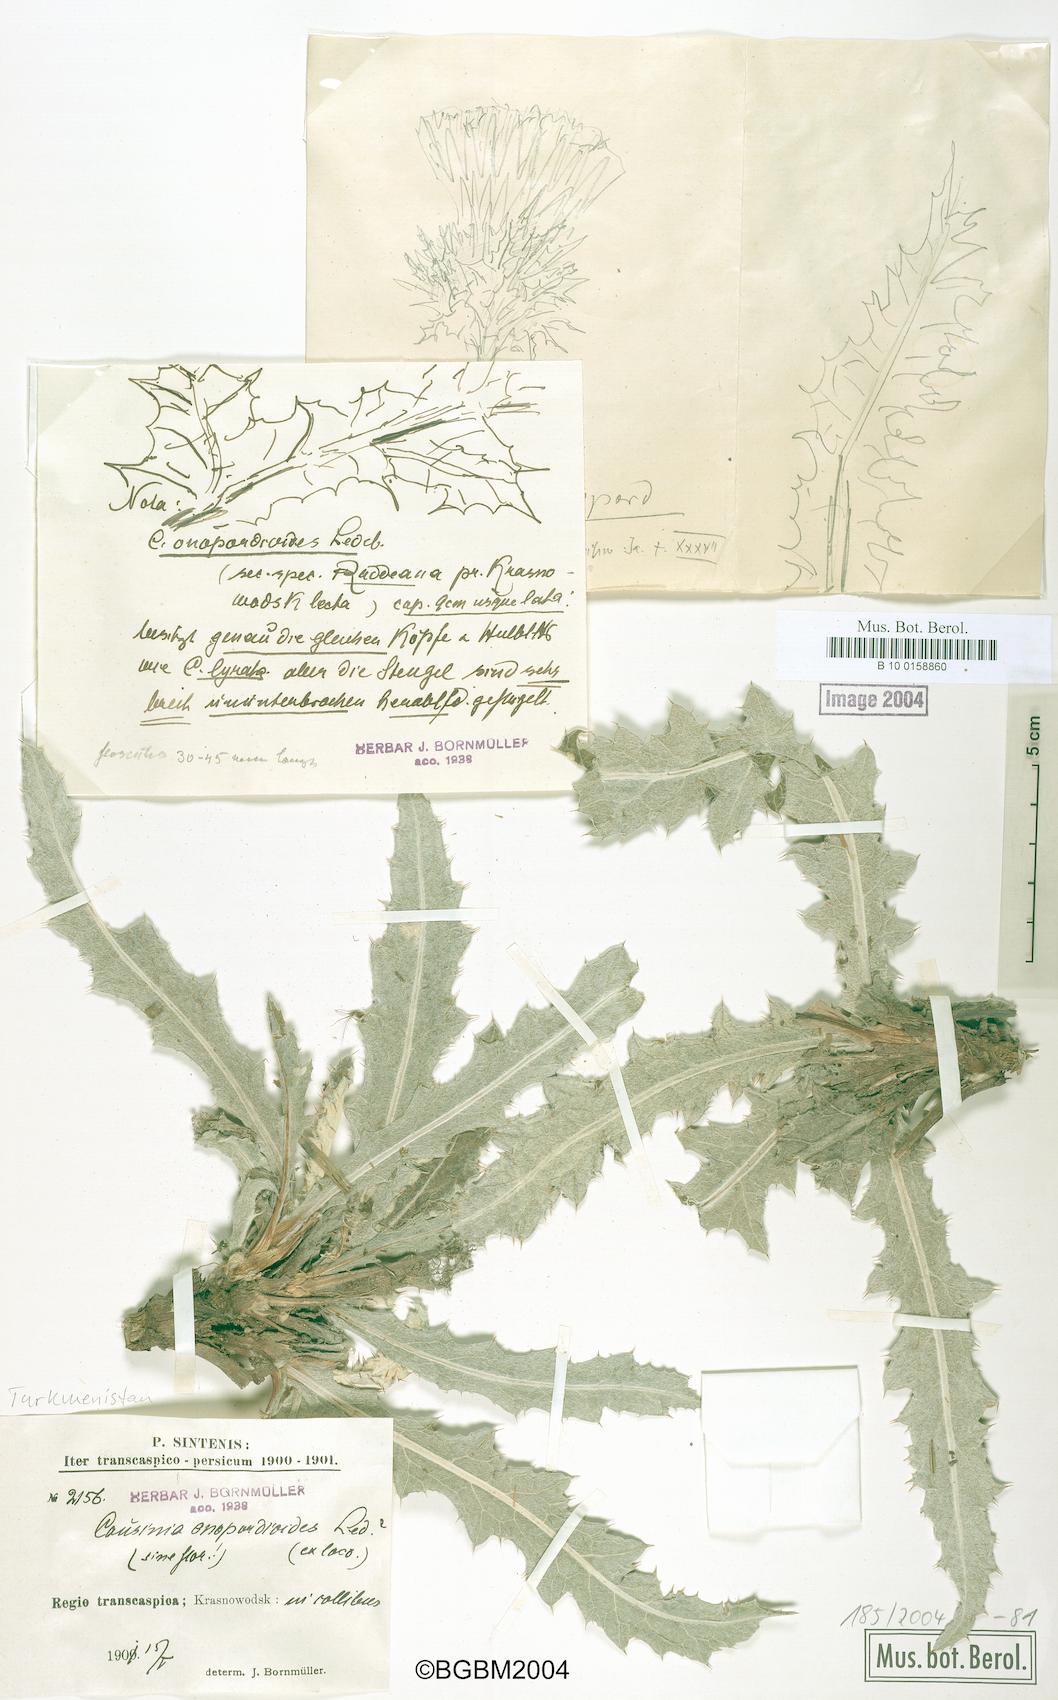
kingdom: Plantae
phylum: Tracheophyta
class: Magnoliopsida
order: Asterales
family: Asteraceae
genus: Cousinia
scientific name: Cousinia onopordioides
